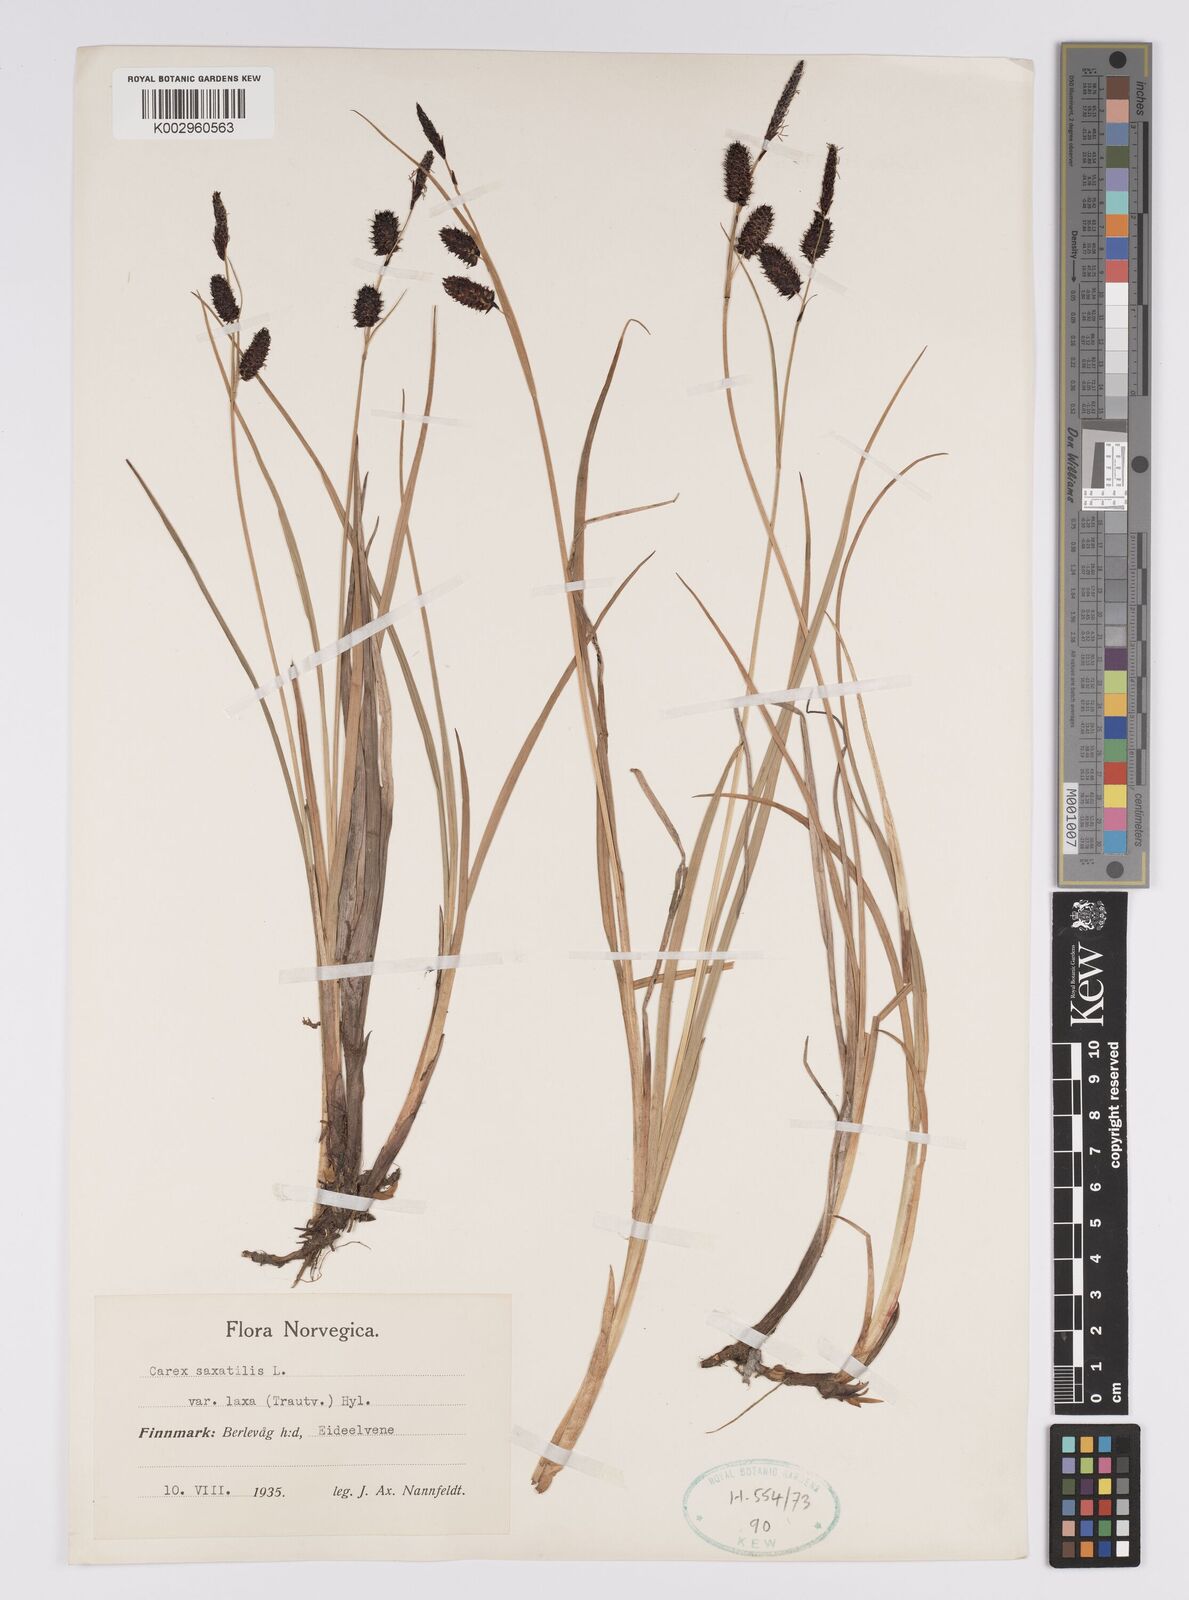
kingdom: Plantae
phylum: Tracheophyta
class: Liliopsida
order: Poales
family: Cyperaceae
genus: Carex
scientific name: Carex saxatilis
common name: Russet sedge
